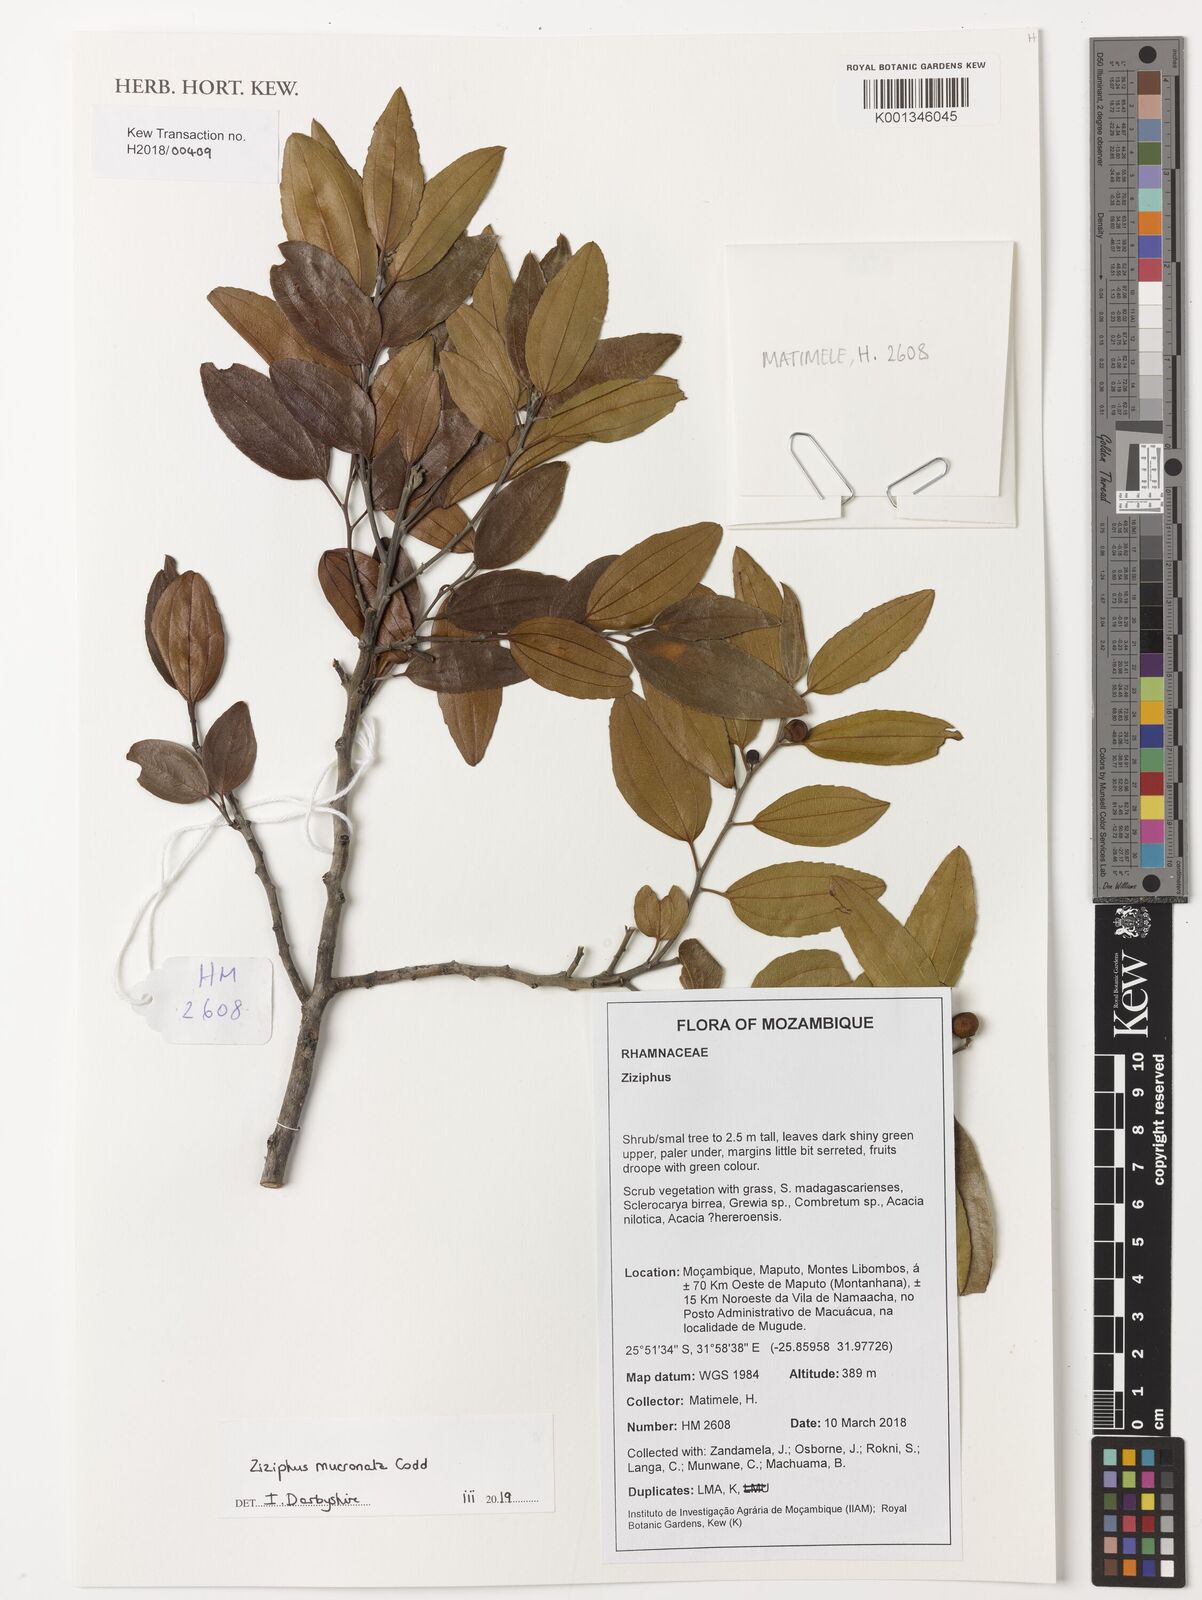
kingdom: Plantae
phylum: Tracheophyta
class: Magnoliopsida
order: Rosales
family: Rhamnaceae
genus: Ziziphus
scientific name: Ziziphus mucronata
